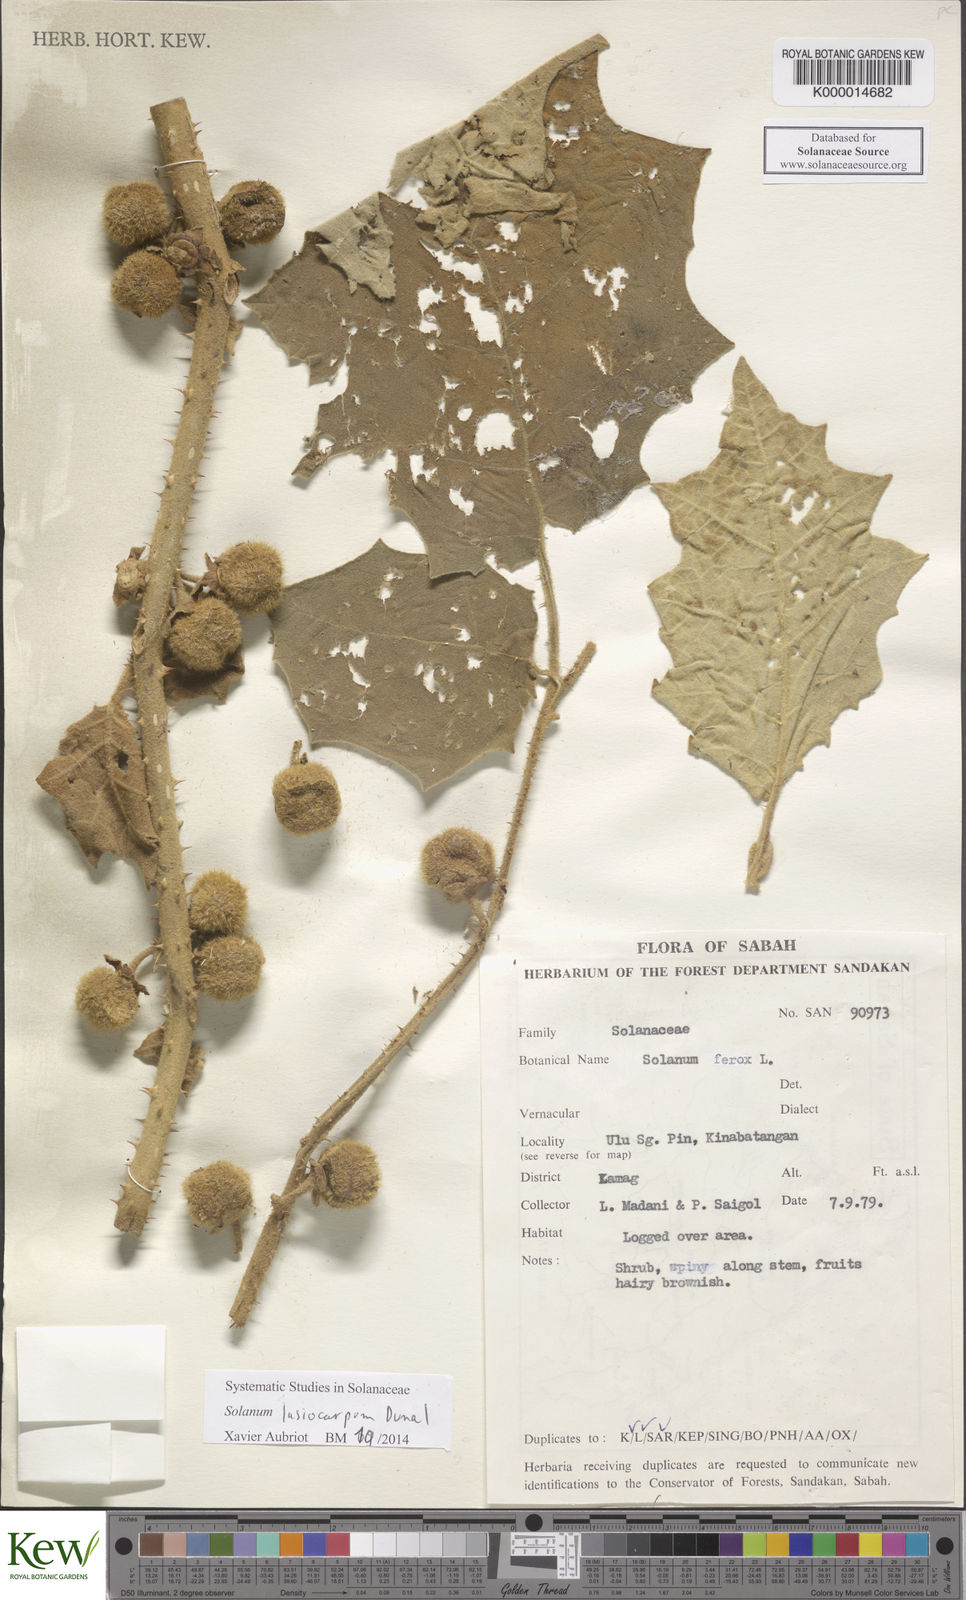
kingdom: Plantae
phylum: Tracheophyta
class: Magnoliopsida
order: Solanales
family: Solanaceae
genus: Solanum
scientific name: Solanum lasiocarpum
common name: Indian nightshade
